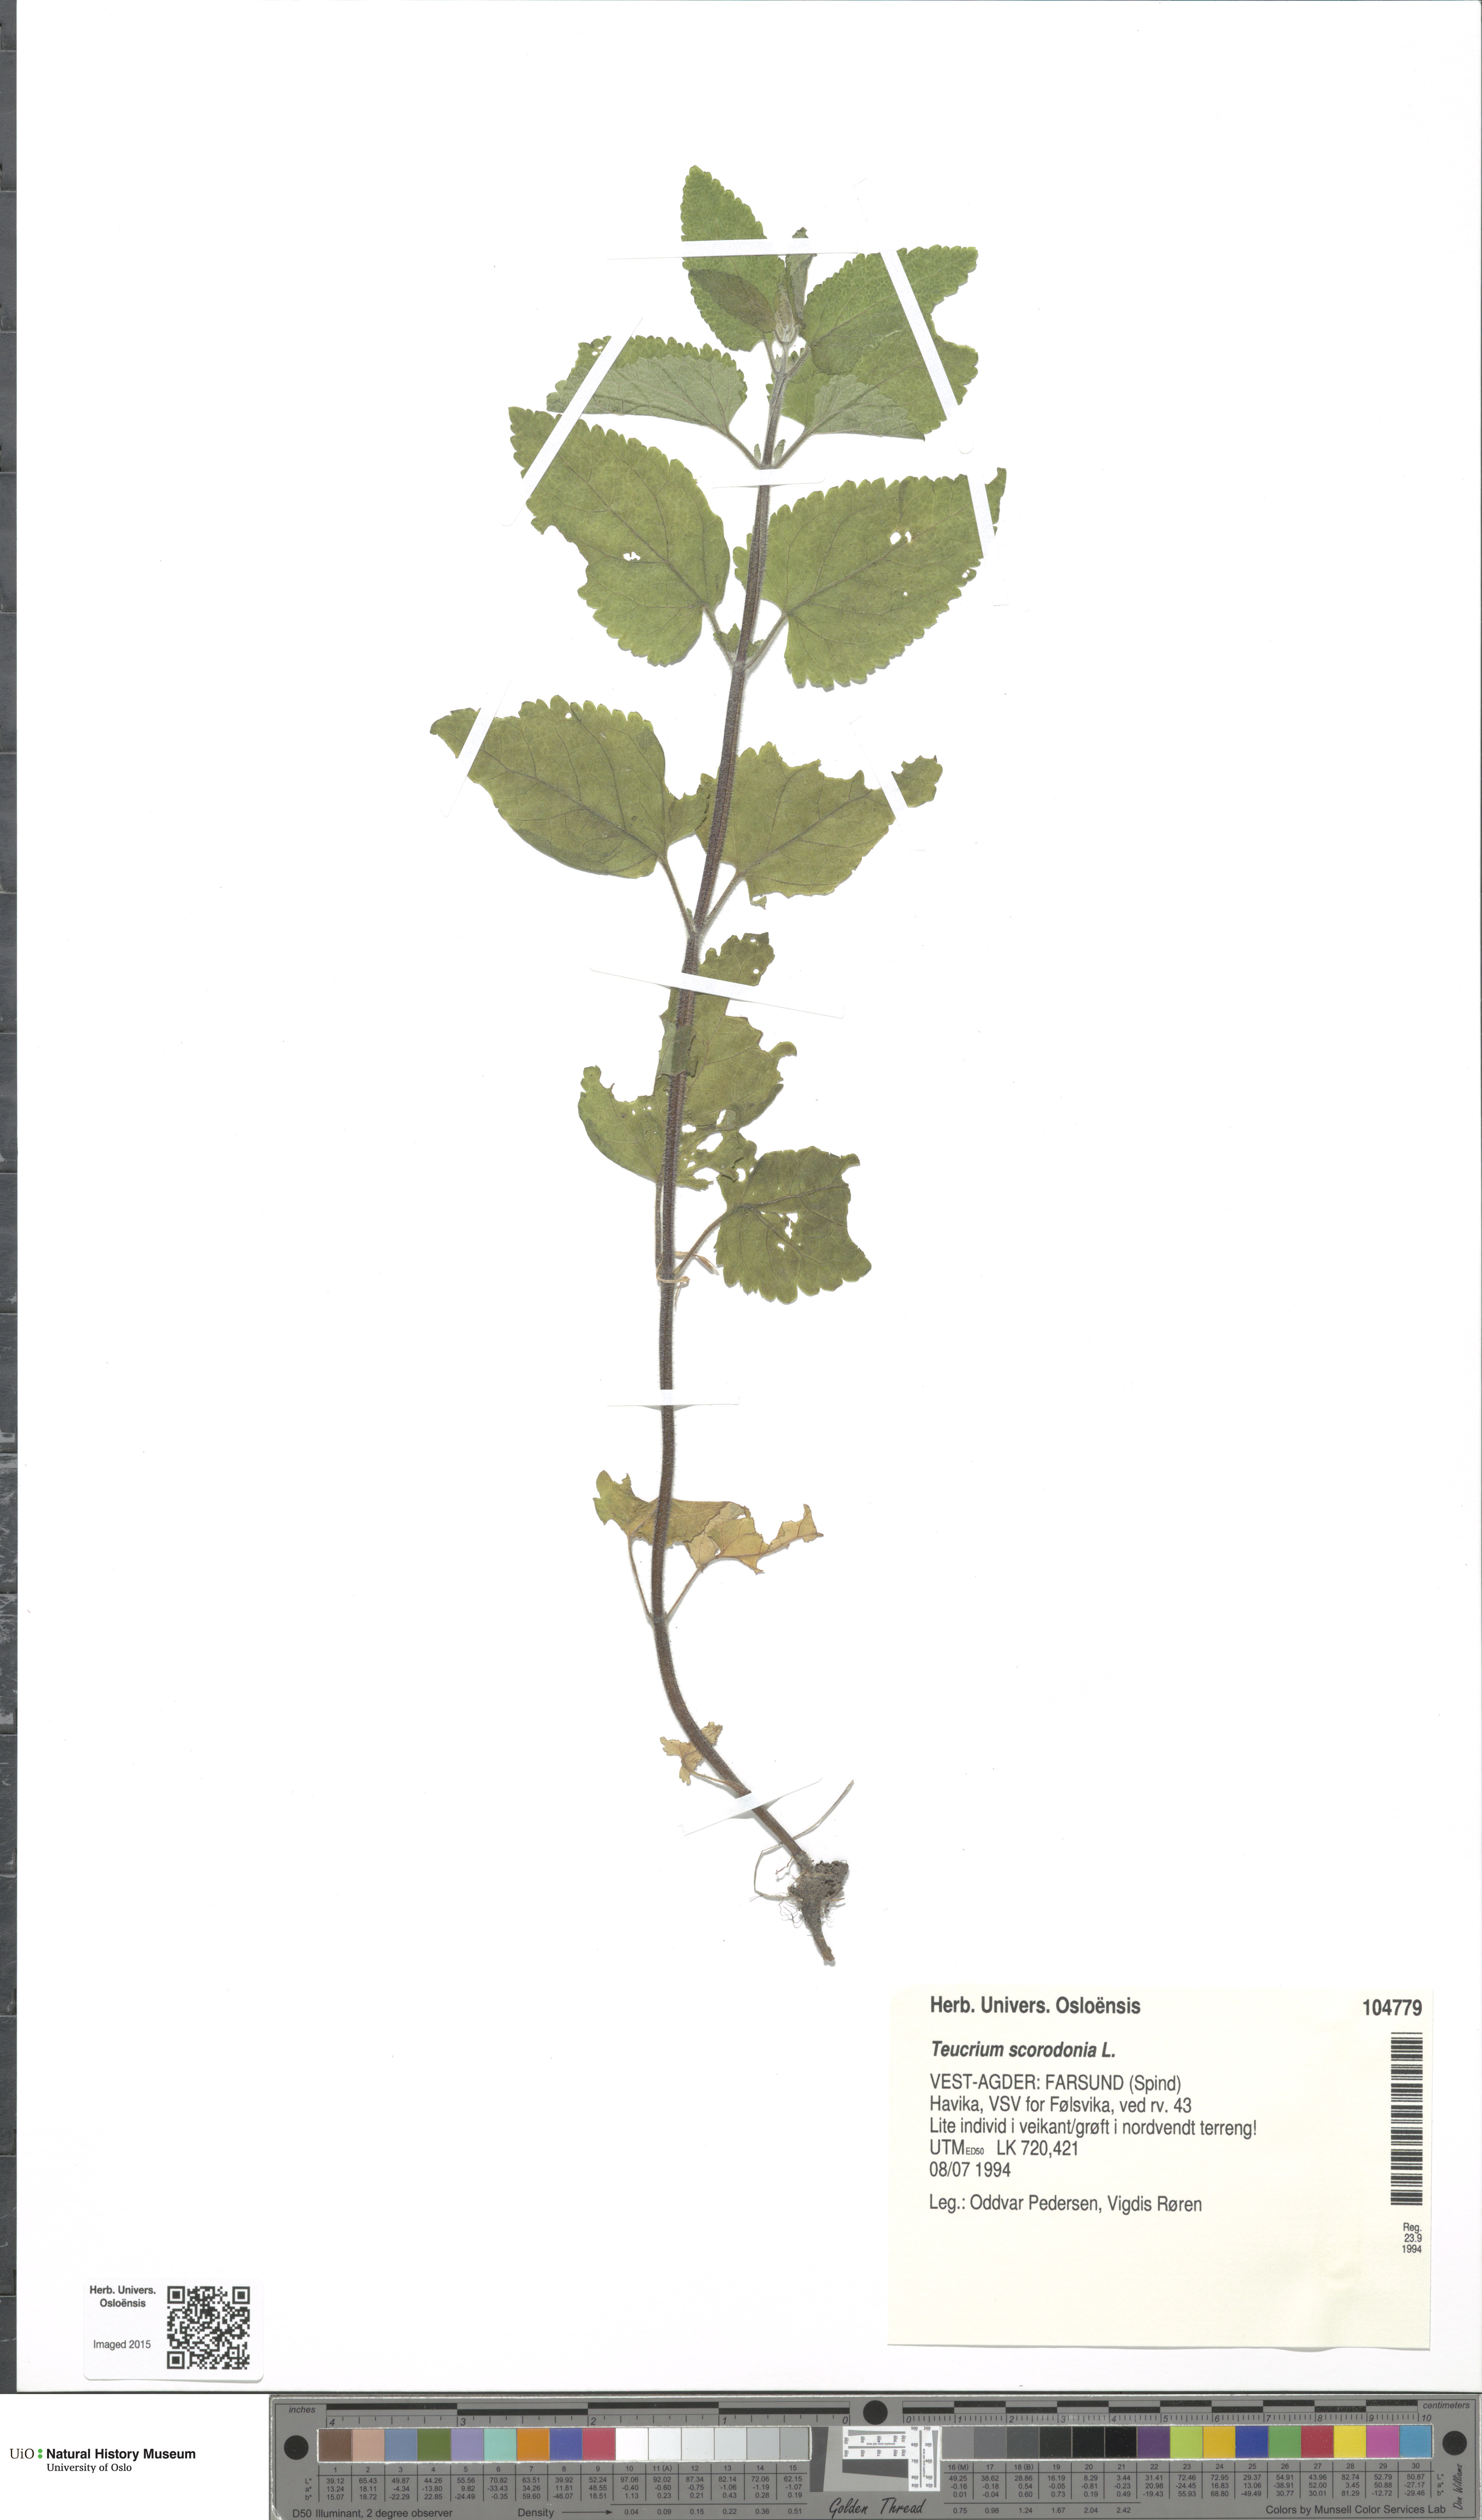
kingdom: Plantae
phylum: Tracheophyta
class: Magnoliopsida
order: Lamiales
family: Lamiaceae
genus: Teucrium
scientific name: Teucrium scorodonia
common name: Woodland germander
